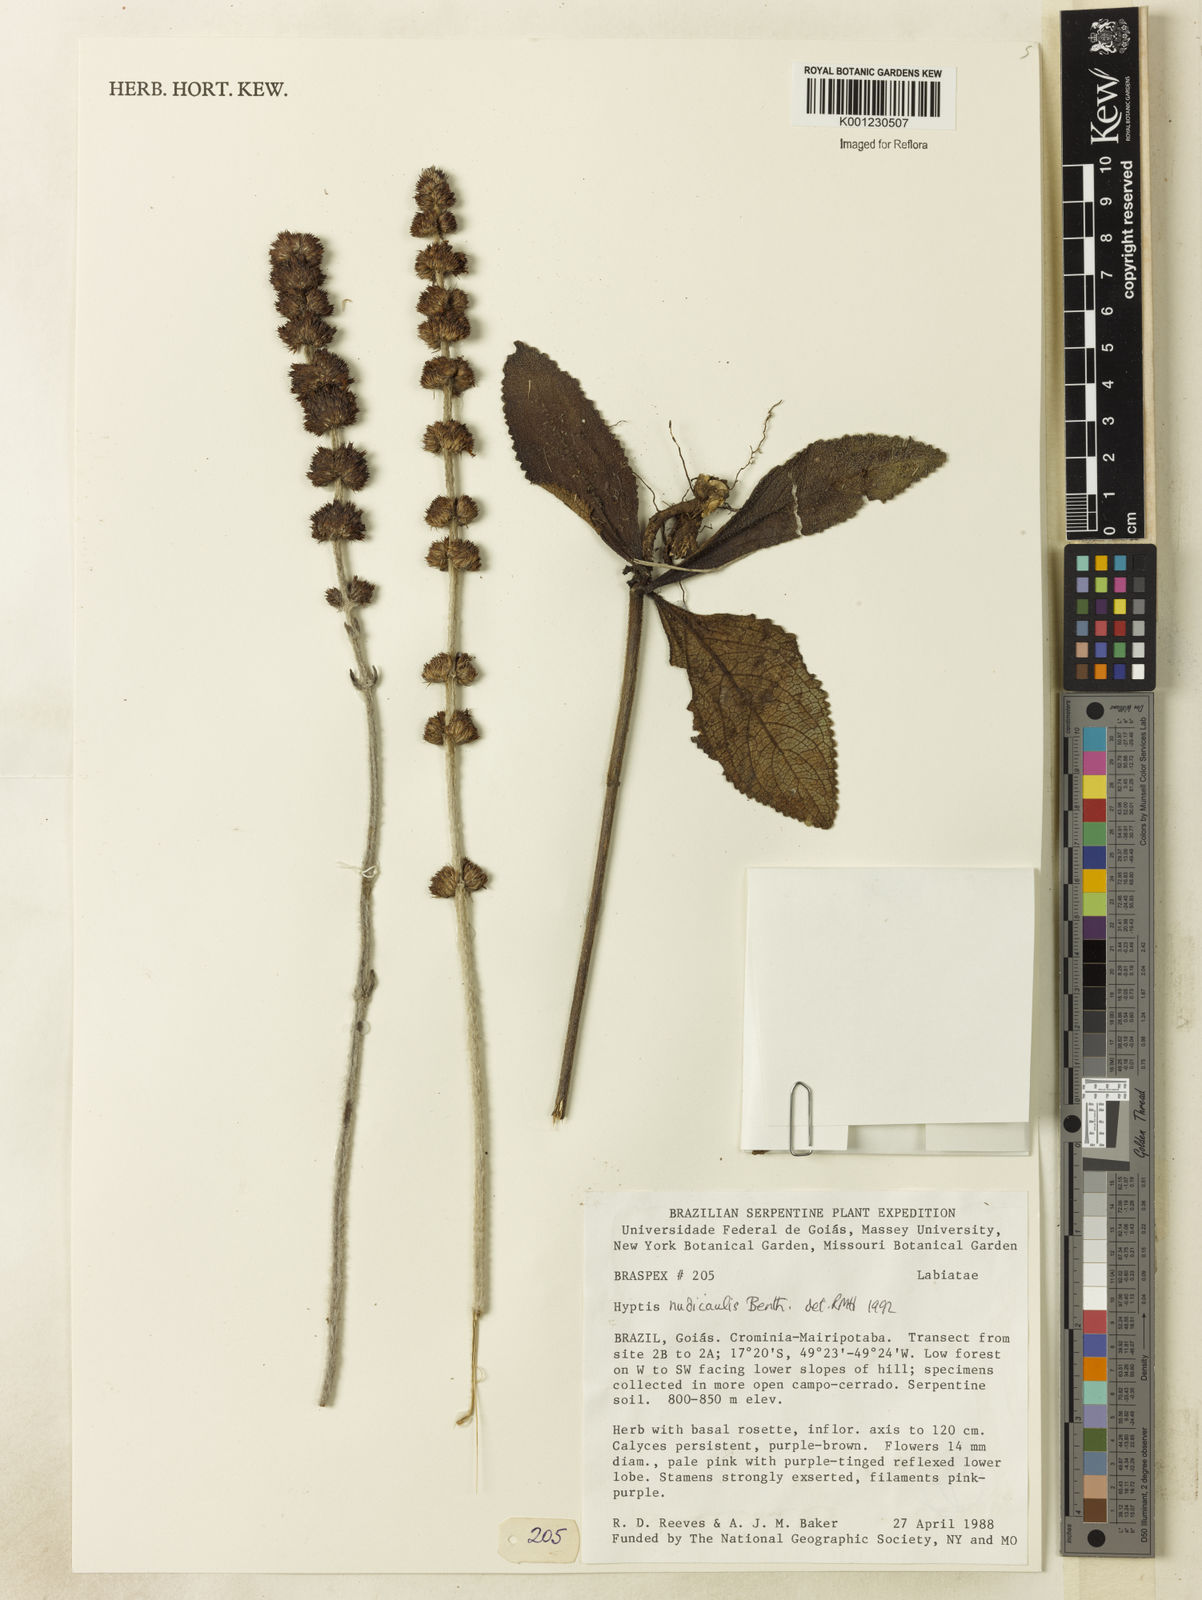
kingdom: Plantae
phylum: Tracheophyta
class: Magnoliopsida
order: Lamiales
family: Lamiaceae
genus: Hyptis
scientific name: Hyptis nudicaulis
